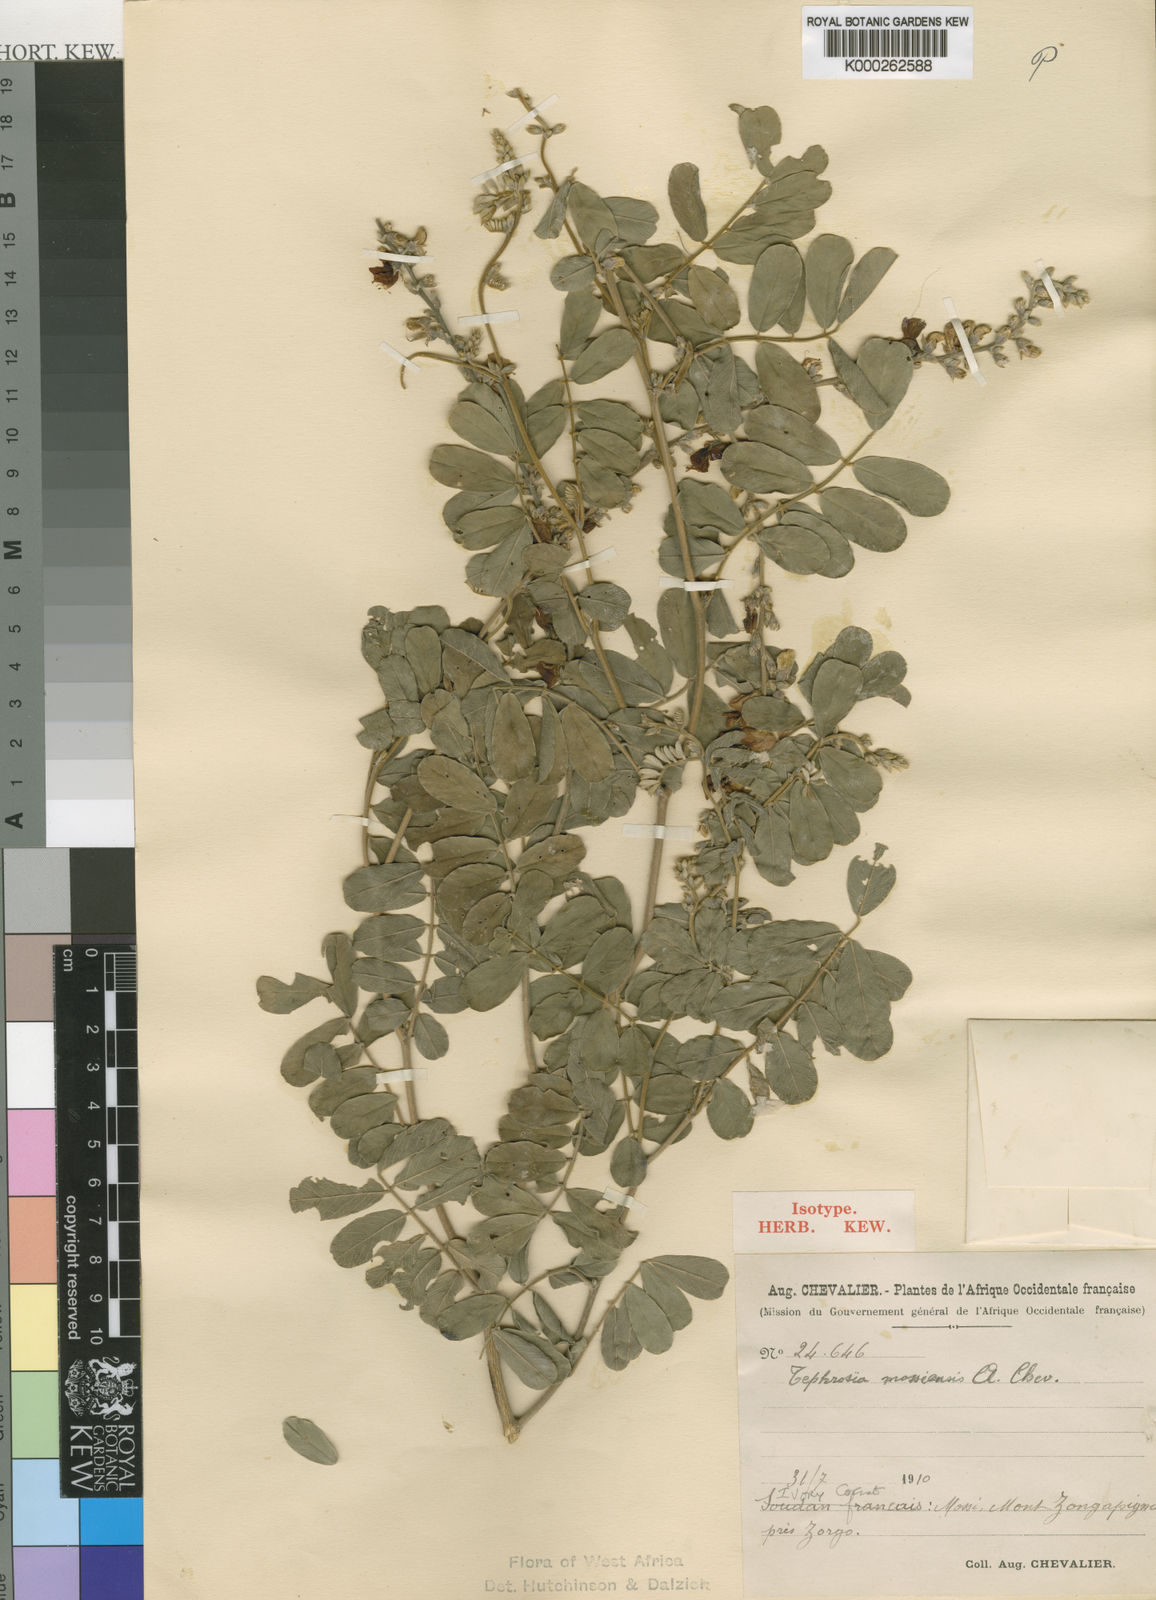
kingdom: Plantae
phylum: Tracheophyta
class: Magnoliopsida
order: Fabales
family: Fabaceae
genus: Tephrosia
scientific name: Tephrosia mossiensis
